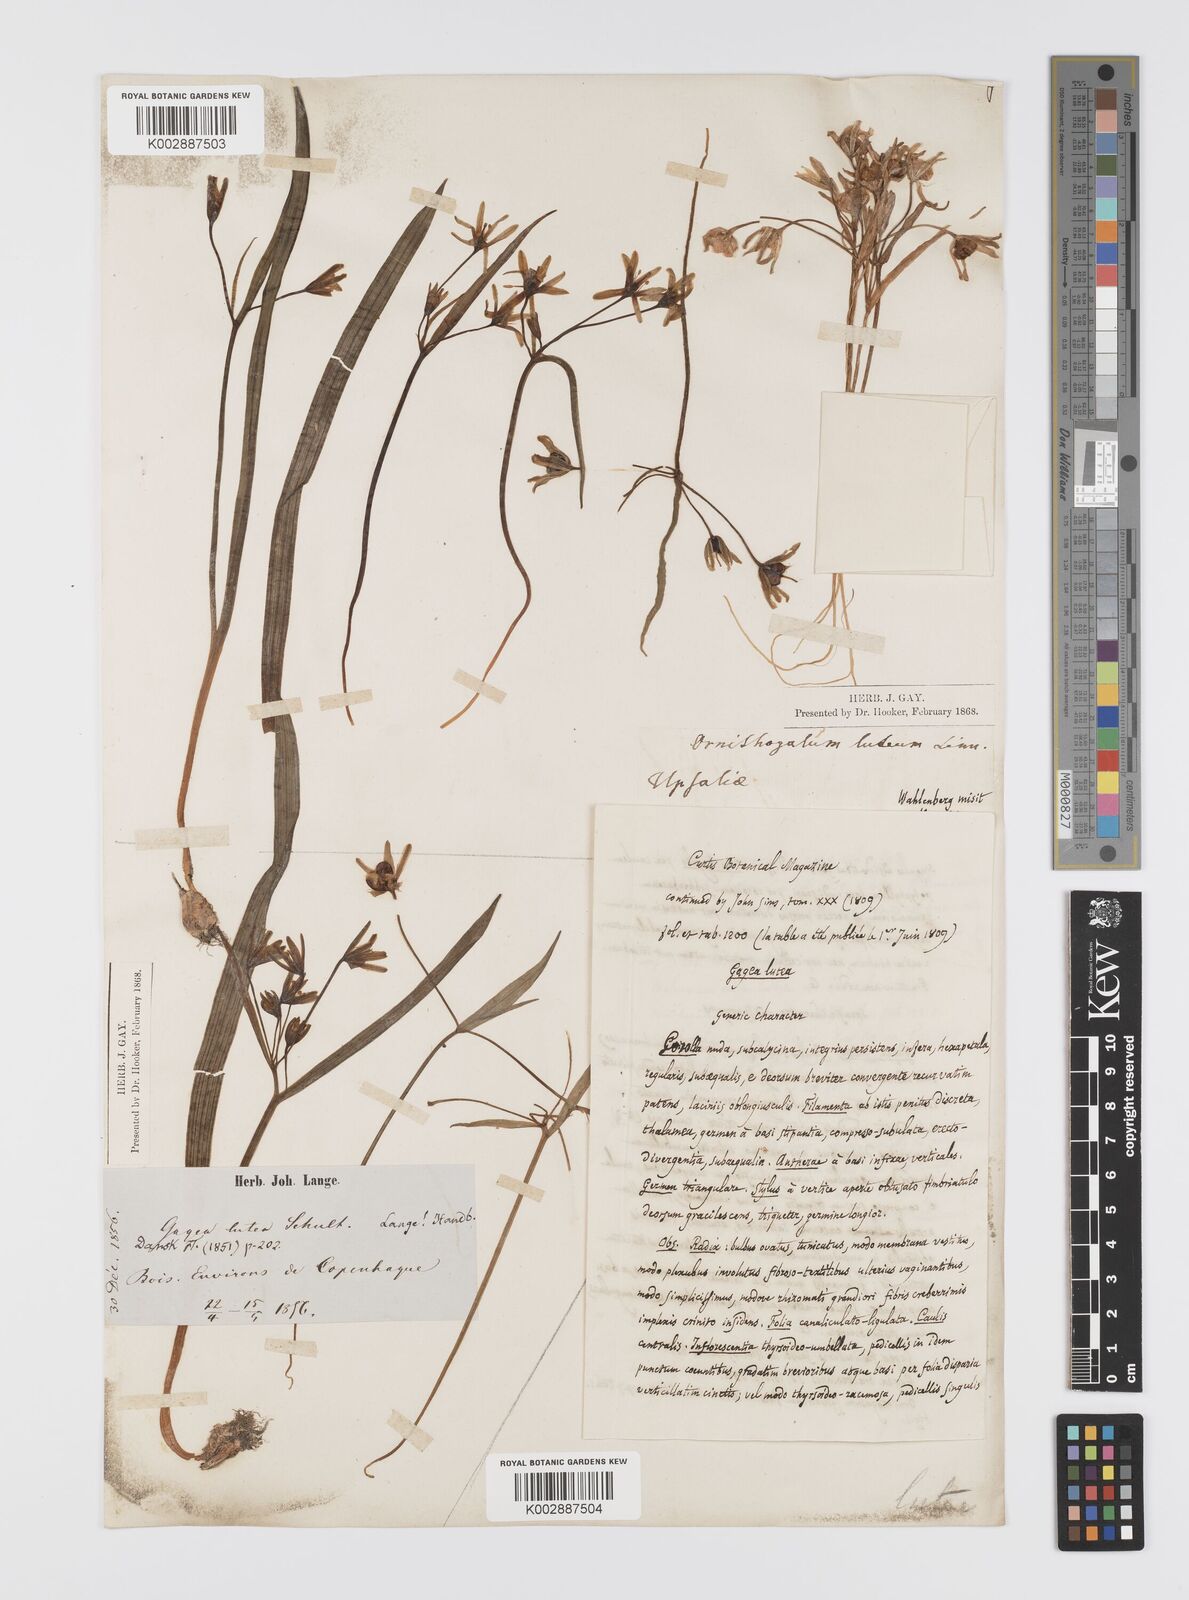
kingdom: Plantae
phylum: Tracheophyta
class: Liliopsida
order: Liliales
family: Liliaceae
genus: Gagea
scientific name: Gagea lutea
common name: Yellow star-of-bethlehem
